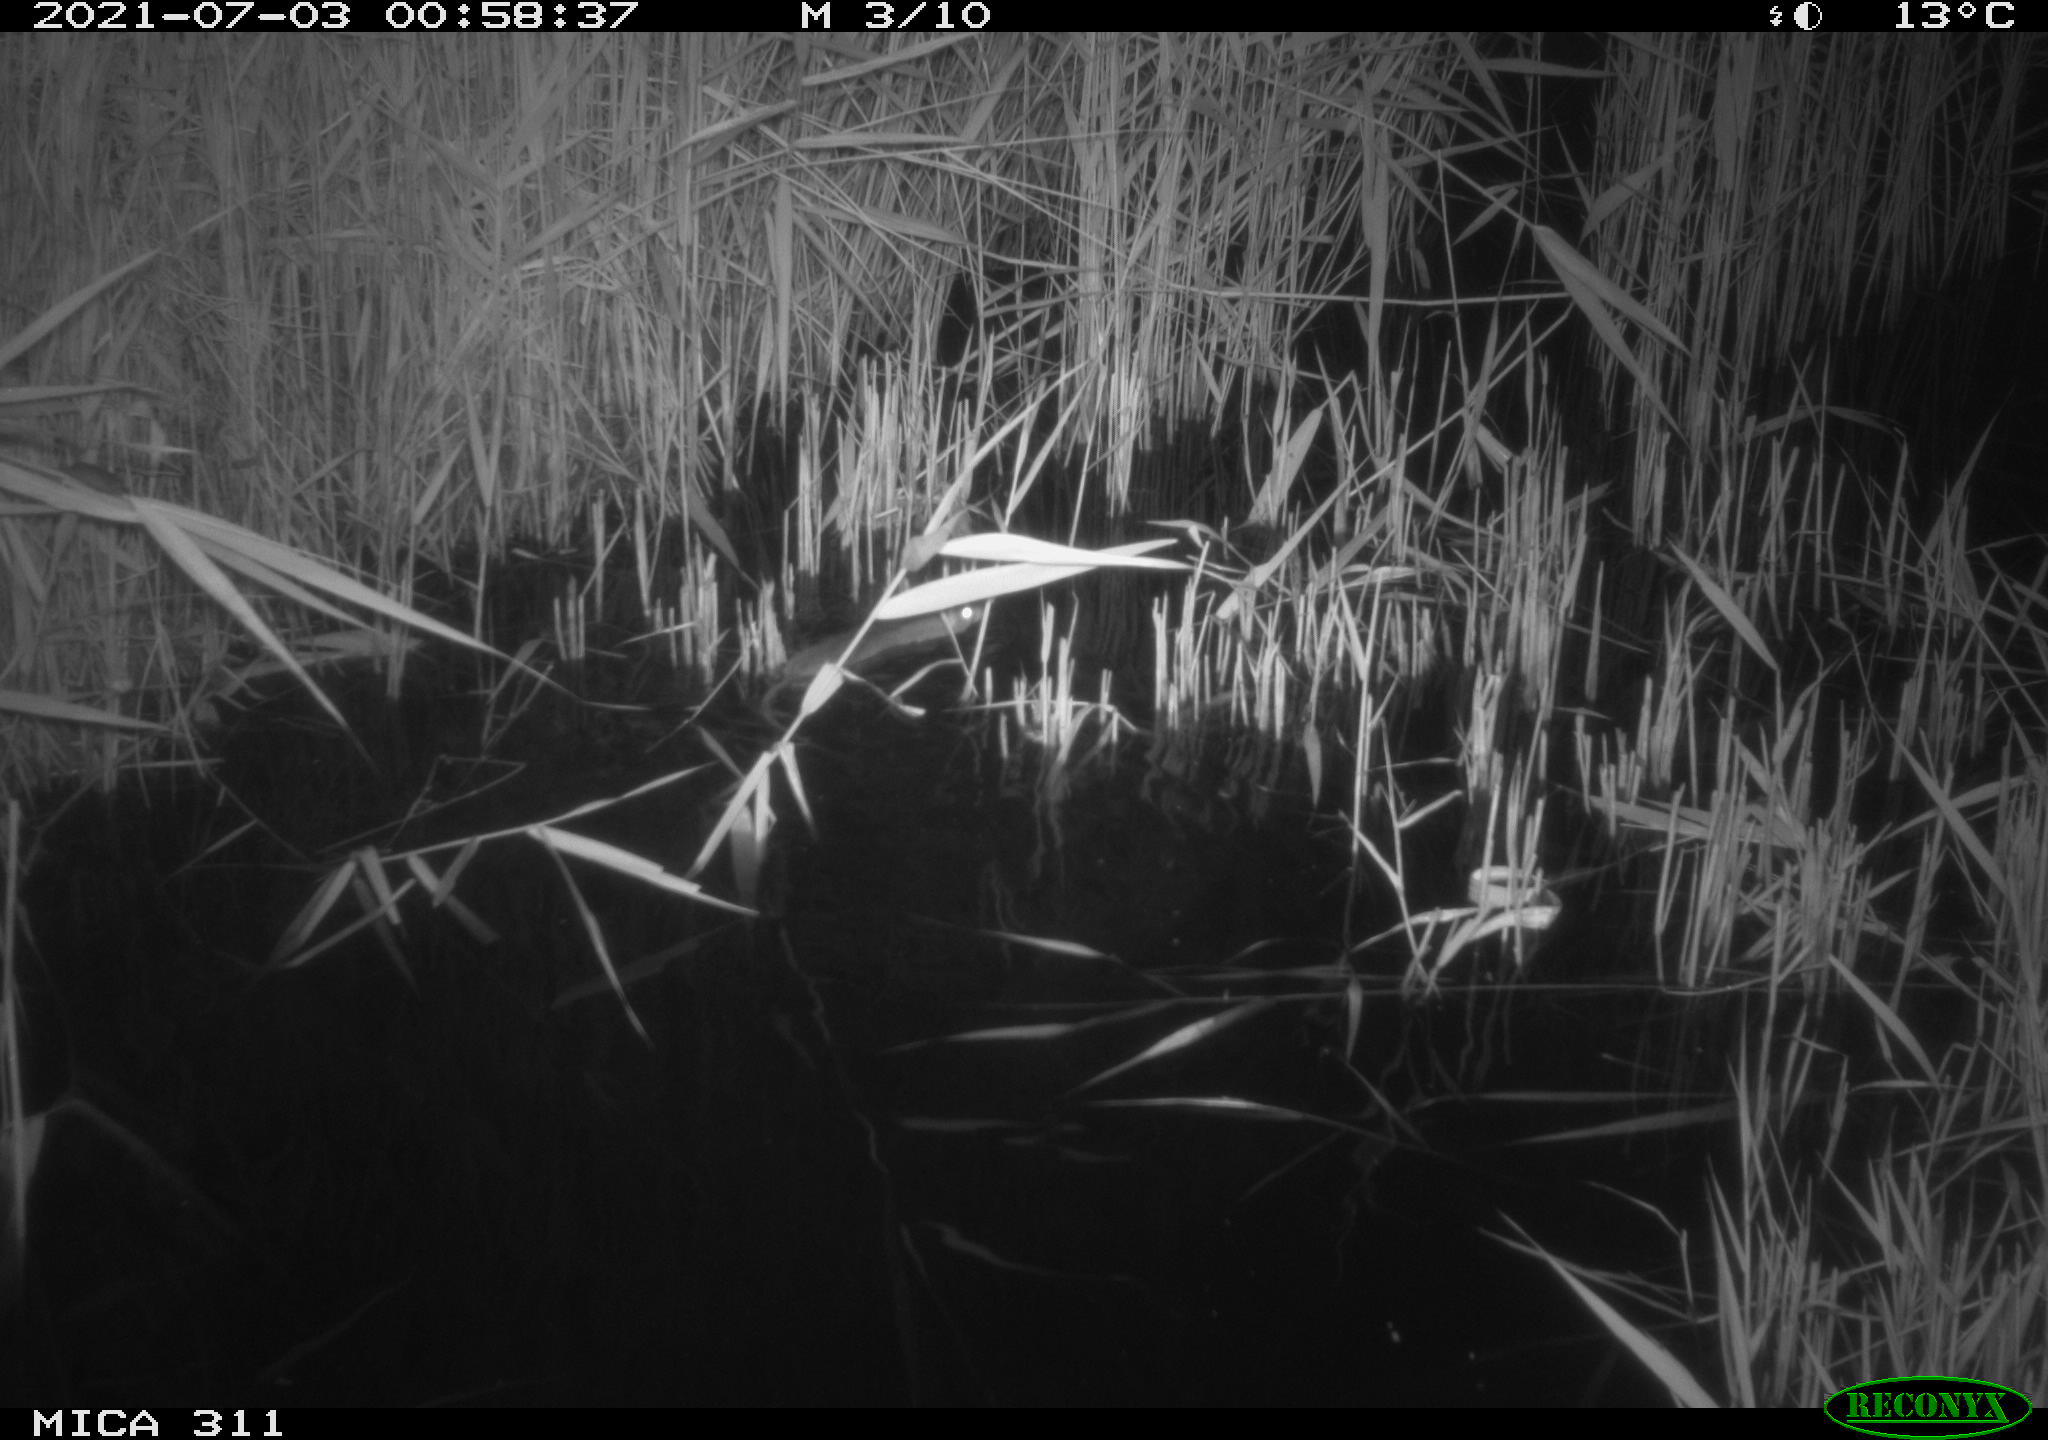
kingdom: Animalia
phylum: Chordata
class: Mammalia
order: Rodentia
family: Muridae
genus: Rattus
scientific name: Rattus norvegicus
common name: Brown rat
